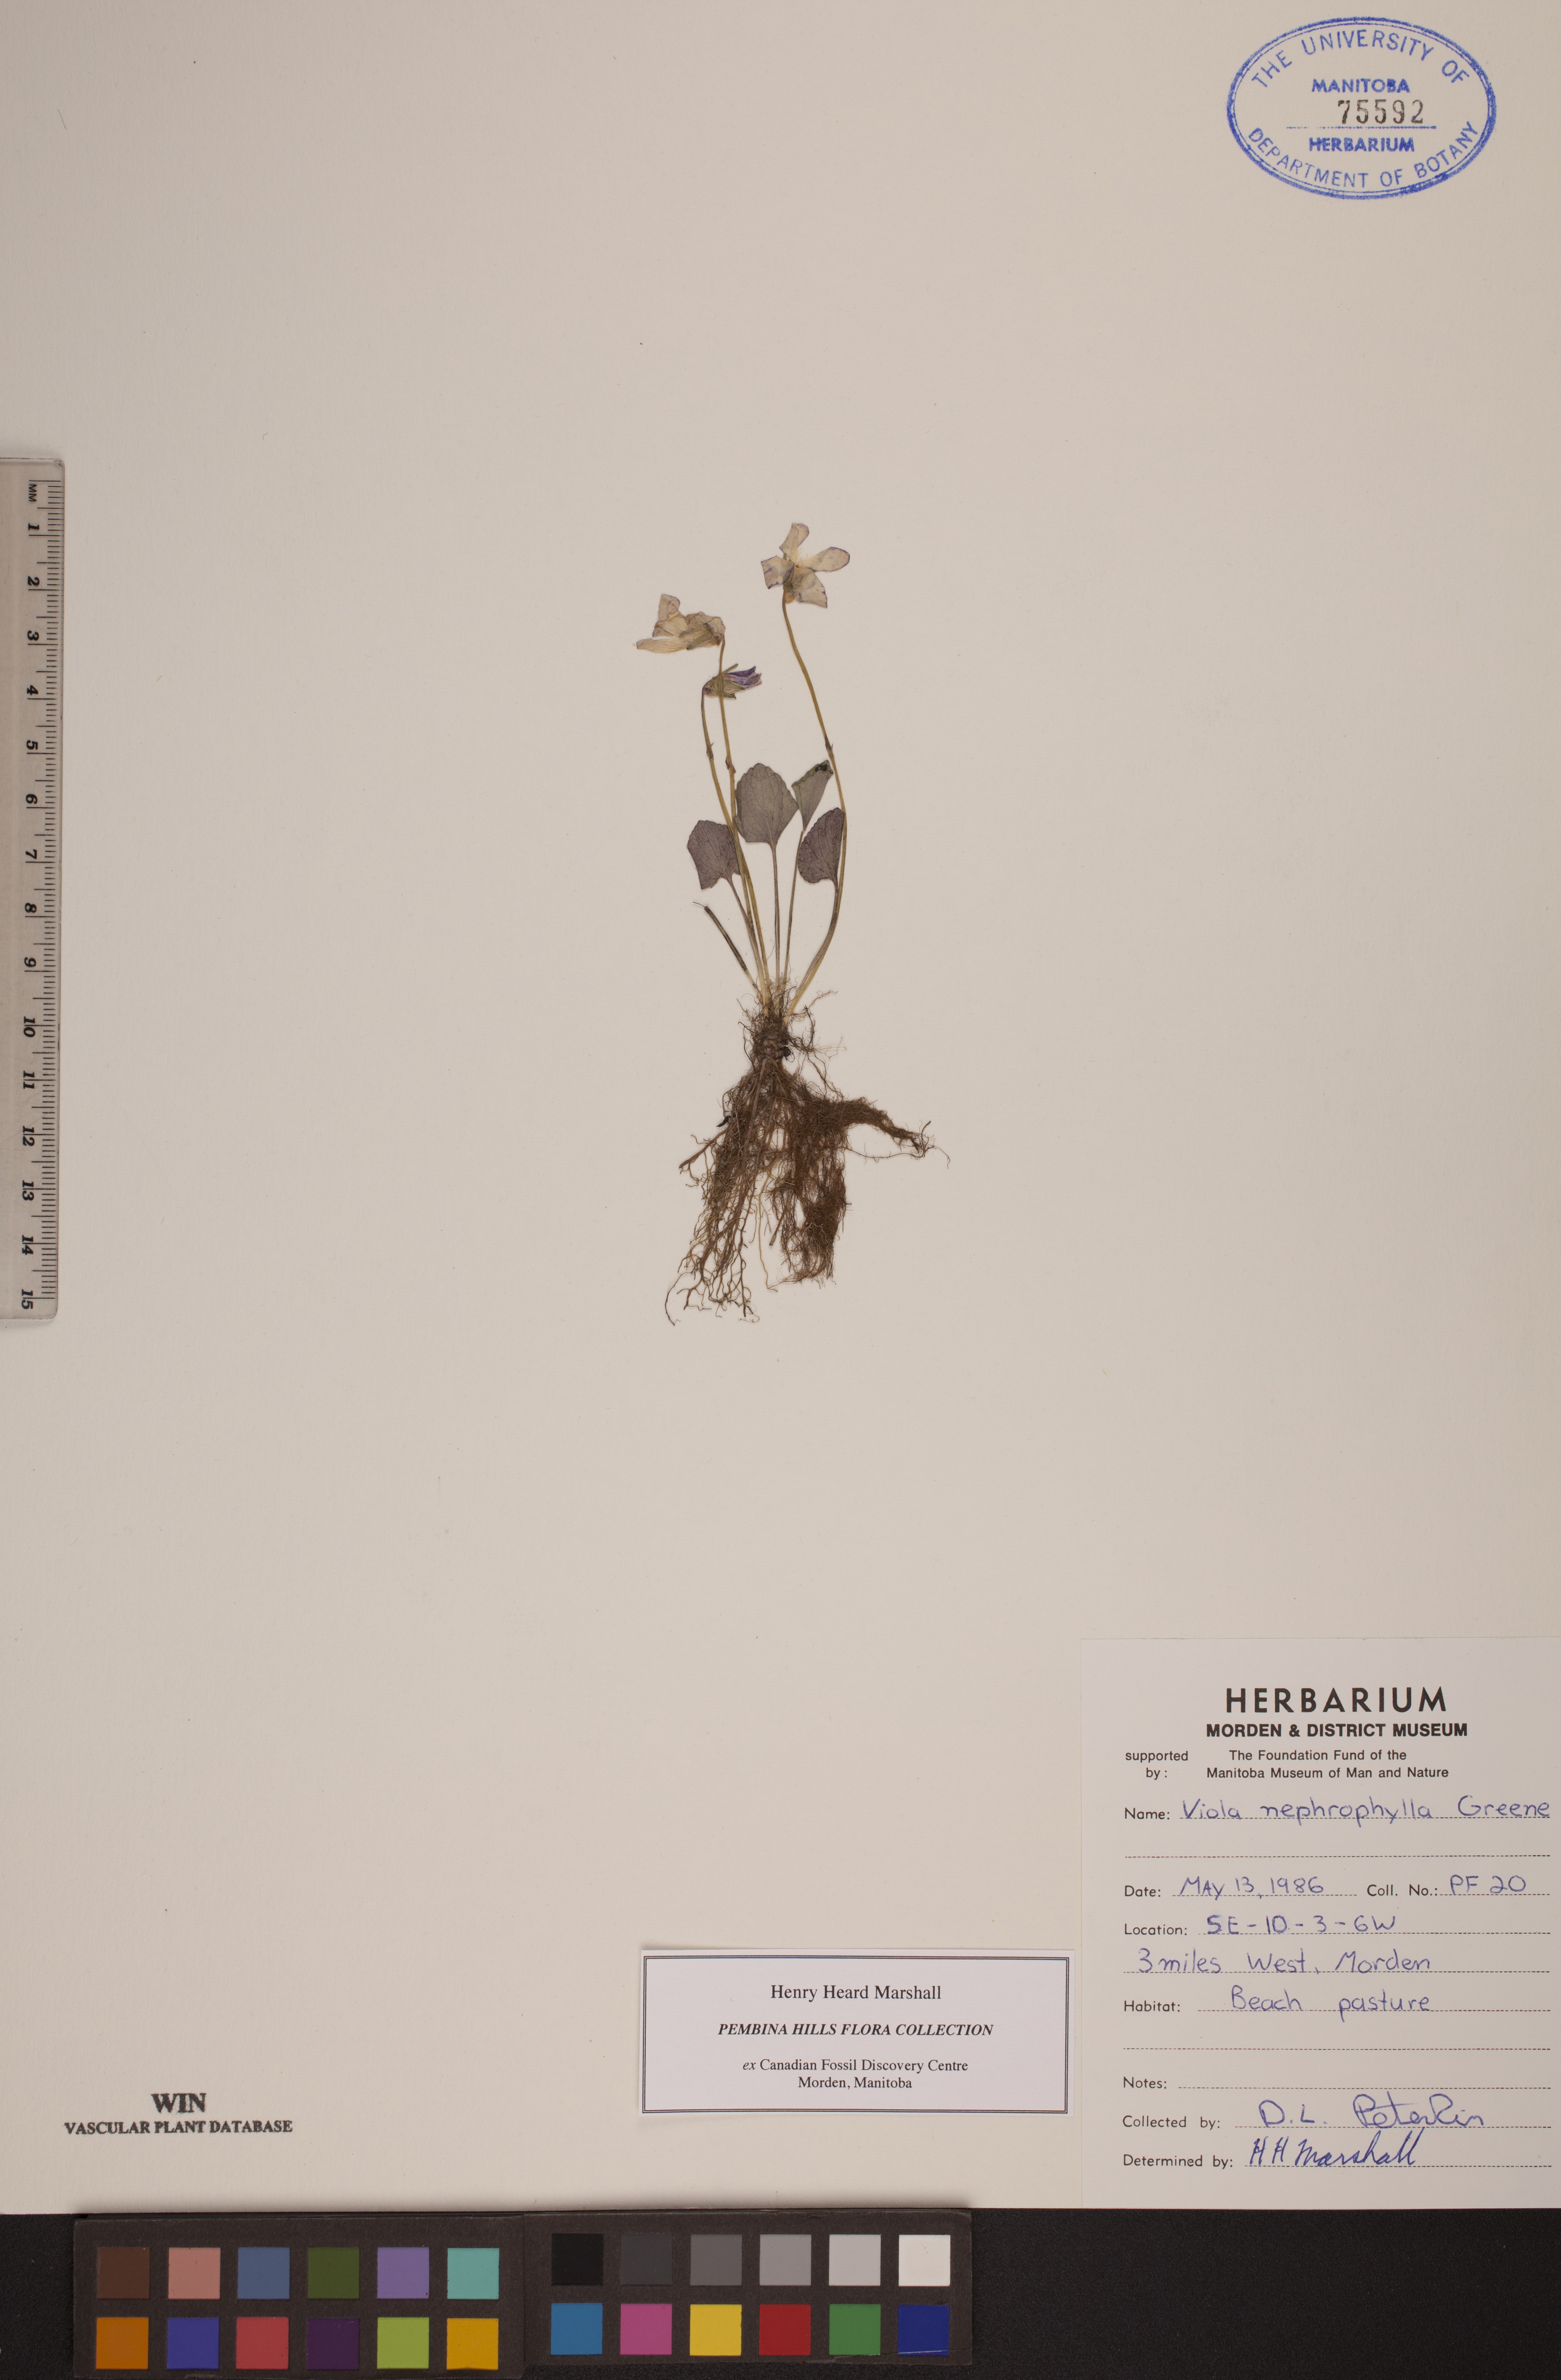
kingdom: Plantae
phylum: Tracheophyta
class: Magnoliopsida
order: Malpighiales
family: Violaceae
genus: Viola
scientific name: Viola nephrophylla
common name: Blue meadow violet
